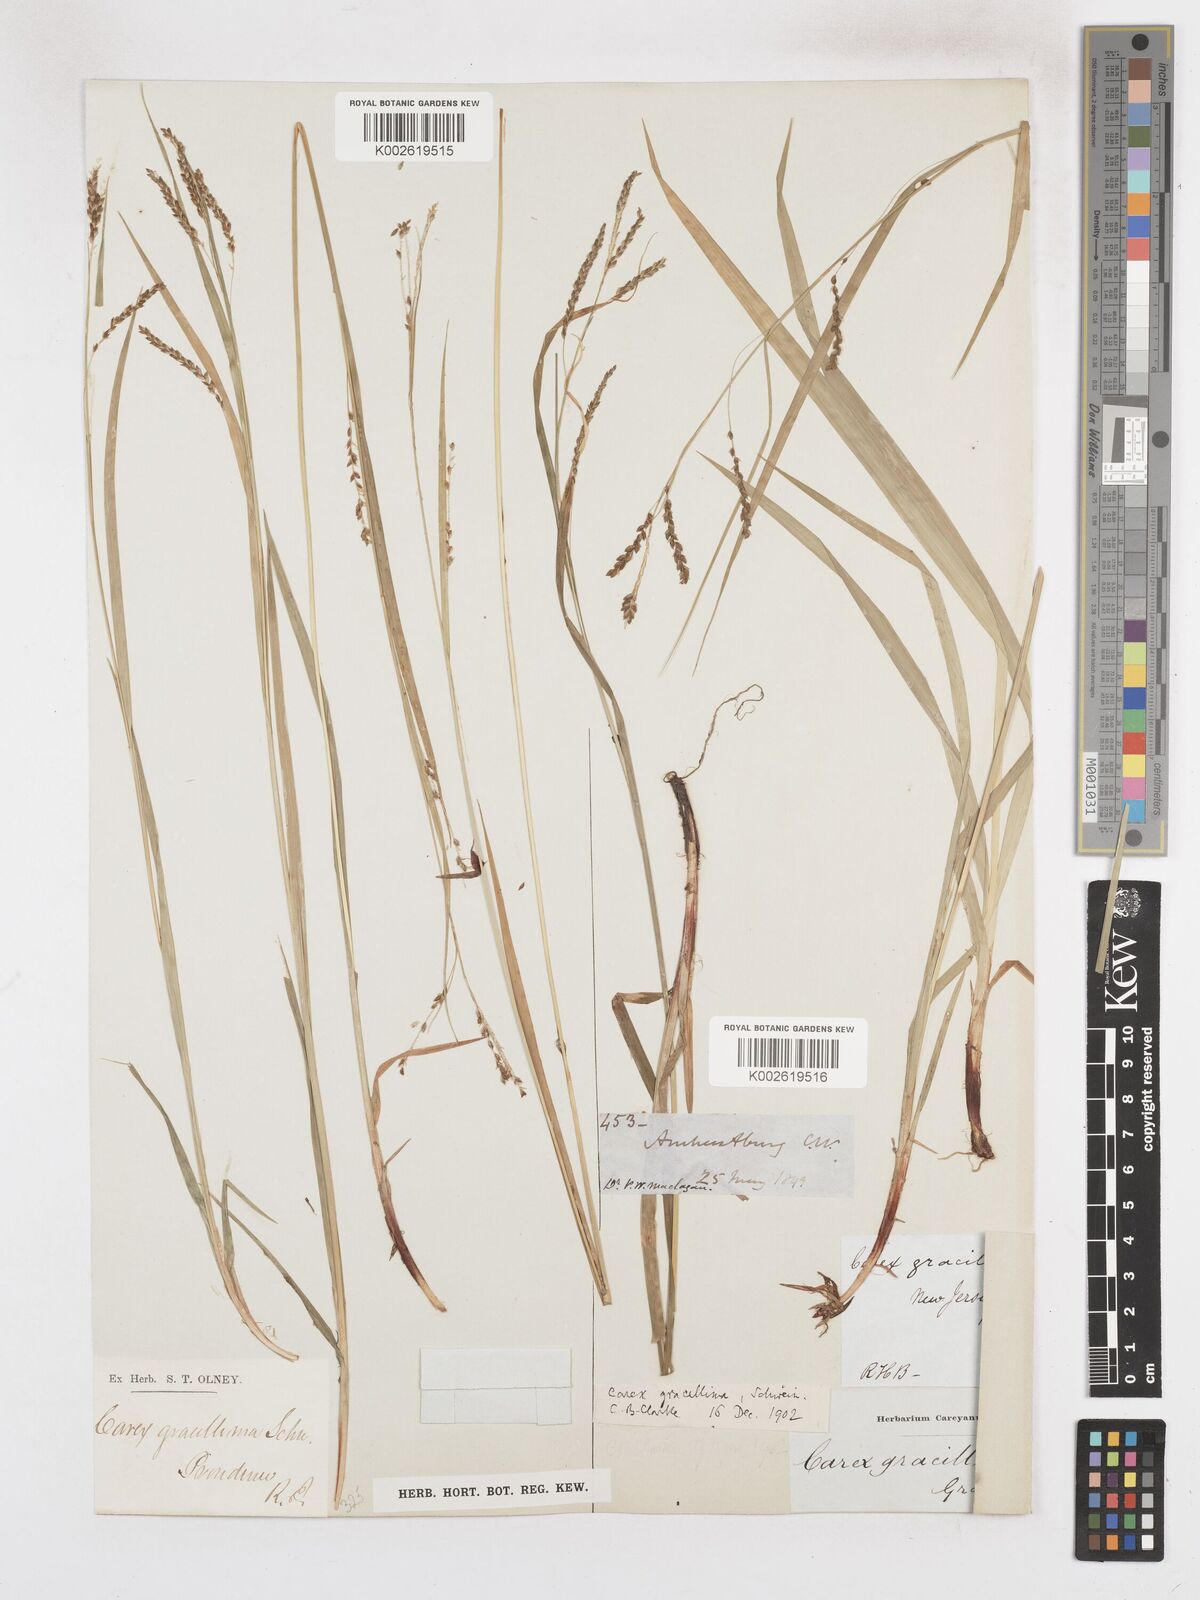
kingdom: Plantae
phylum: Tracheophyta
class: Liliopsida
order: Poales
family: Cyperaceae
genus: Carex
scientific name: Carex gracillima
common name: Graceful sedge
